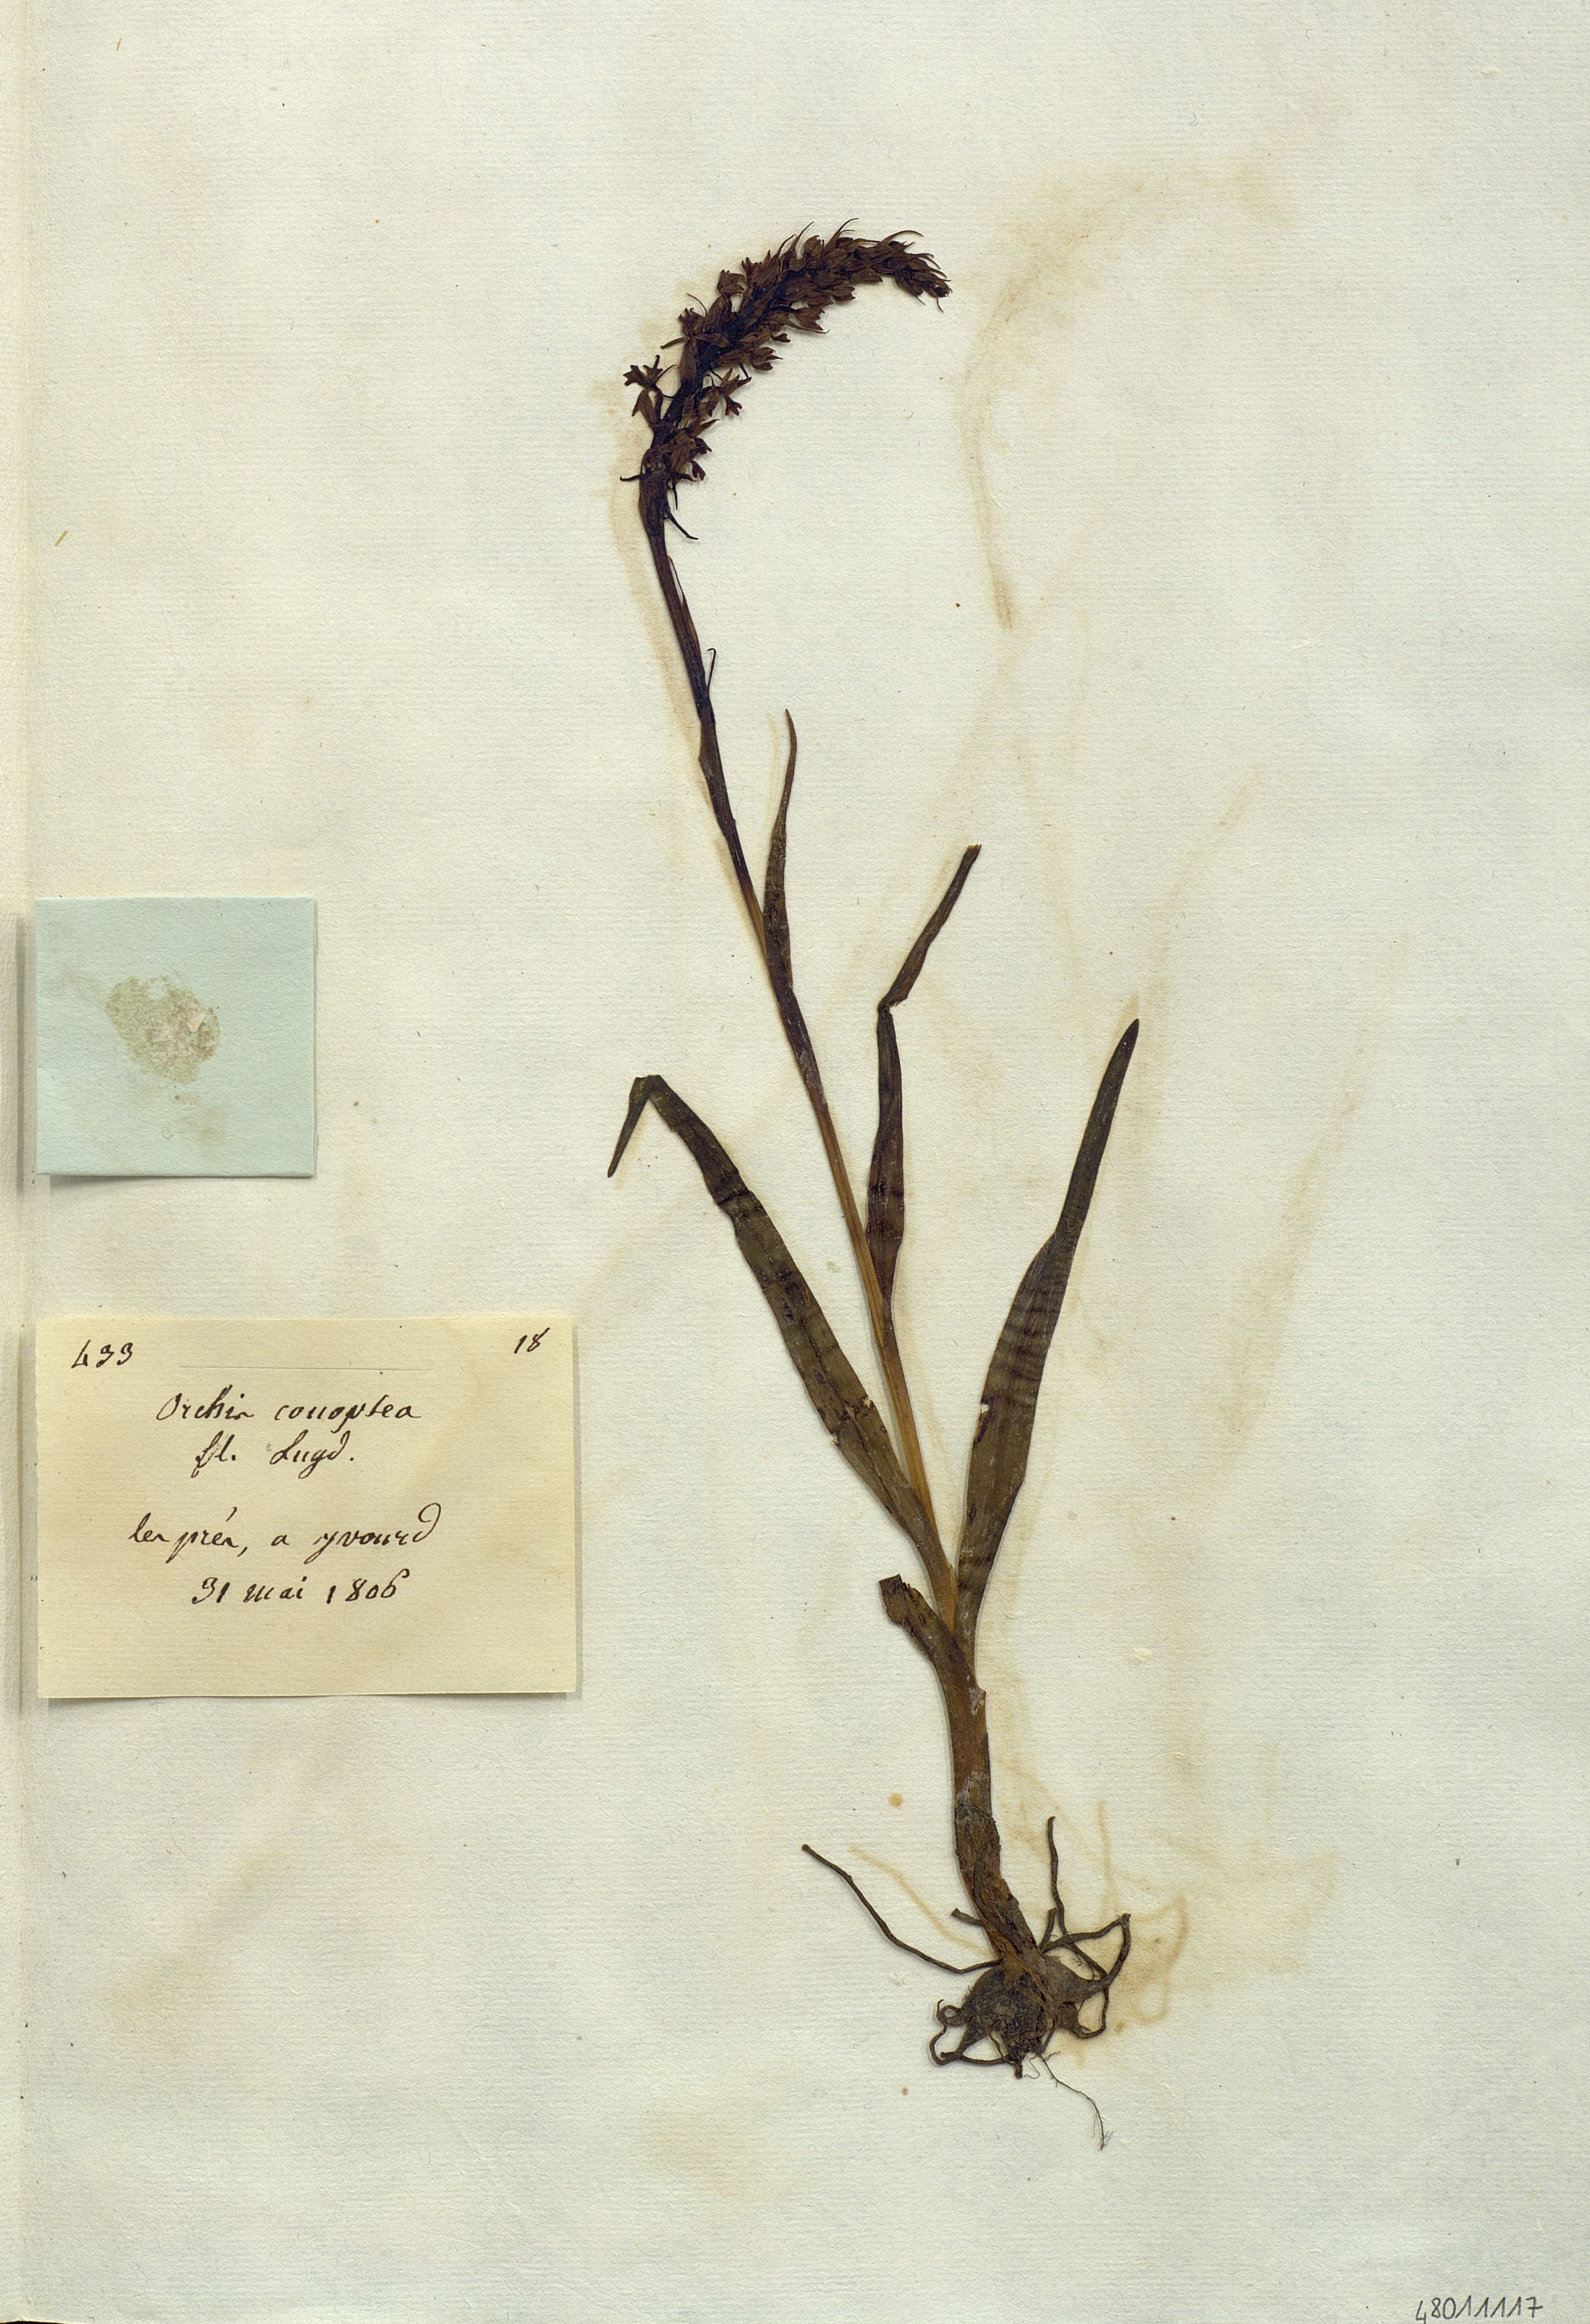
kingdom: Plantae
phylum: Tracheophyta
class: Liliopsida
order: Asparagales
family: Orchidaceae
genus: Orchis
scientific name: Orchis conopsea
